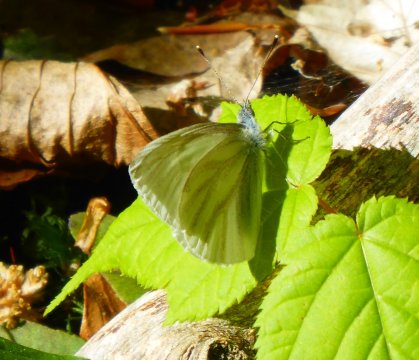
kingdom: Animalia
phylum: Arthropoda
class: Insecta
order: Lepidoptera
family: Pieridae
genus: Pieris
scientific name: Pieris virginiensis
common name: West Virginia White
